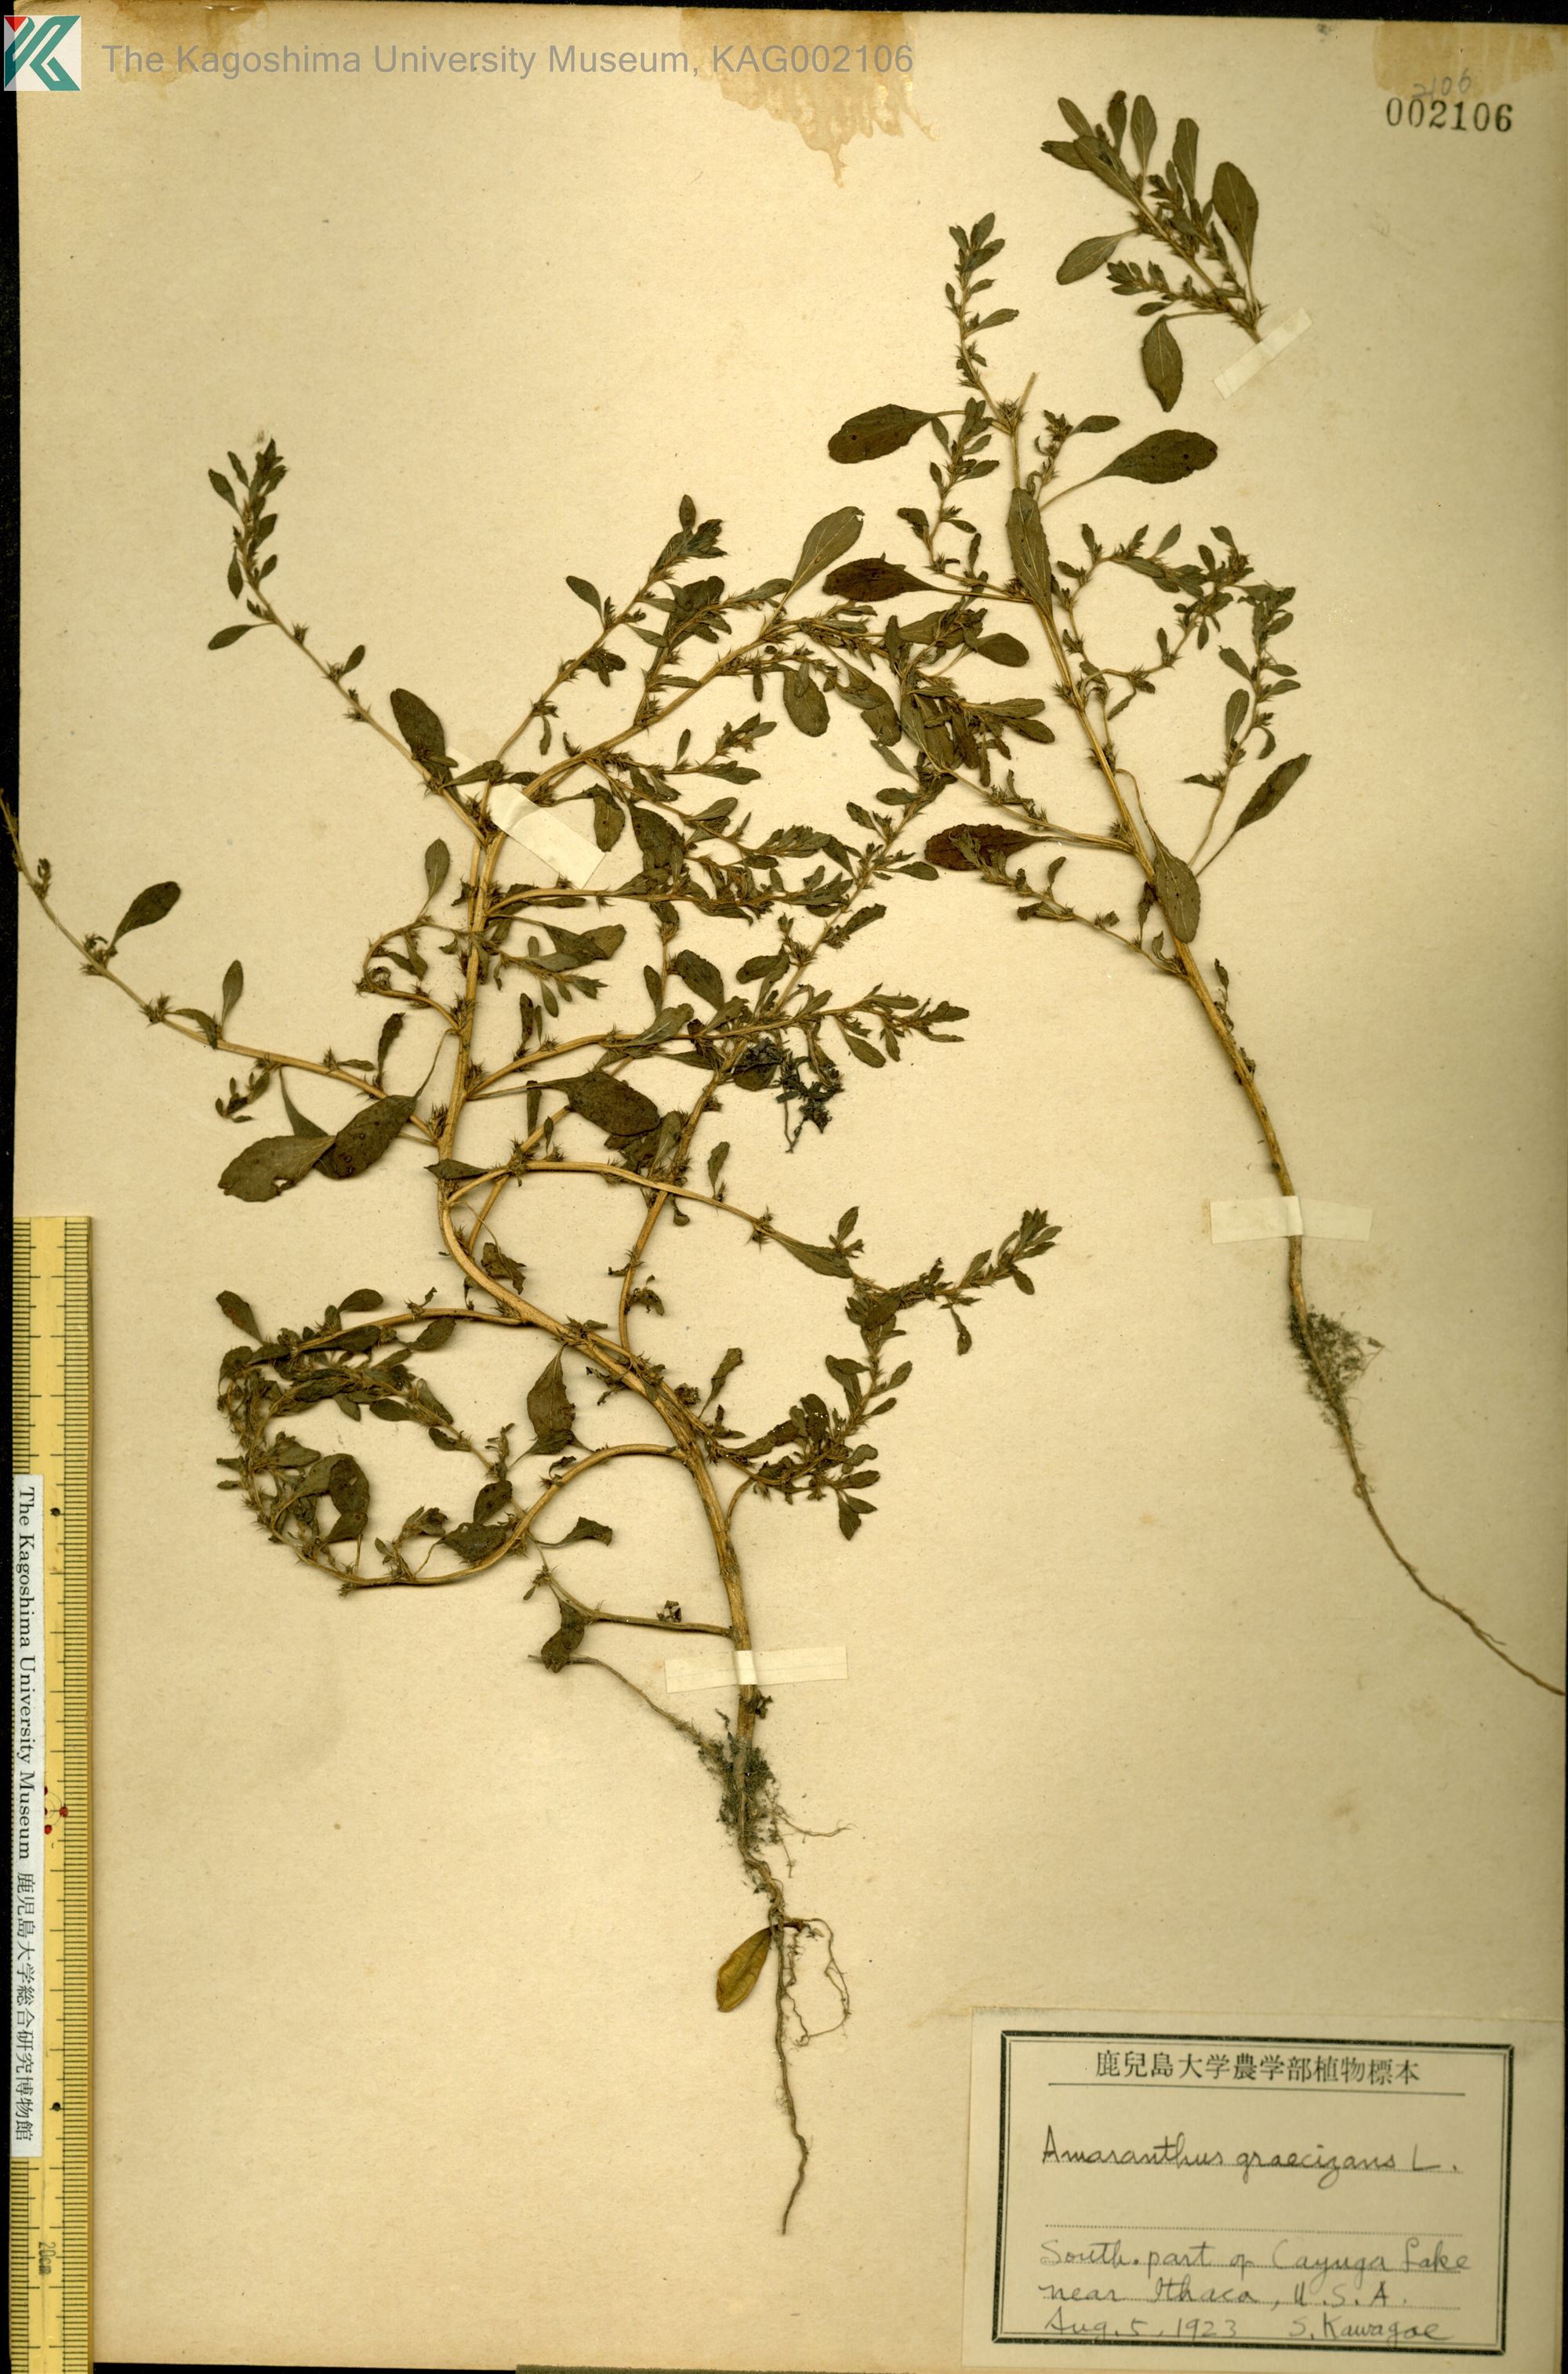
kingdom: Plantae
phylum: Tracheophyta
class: Magnoliopsida
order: Caryophyllales
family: Amaranthaceae
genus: Amaranthus
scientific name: Amaranthus graecizans
